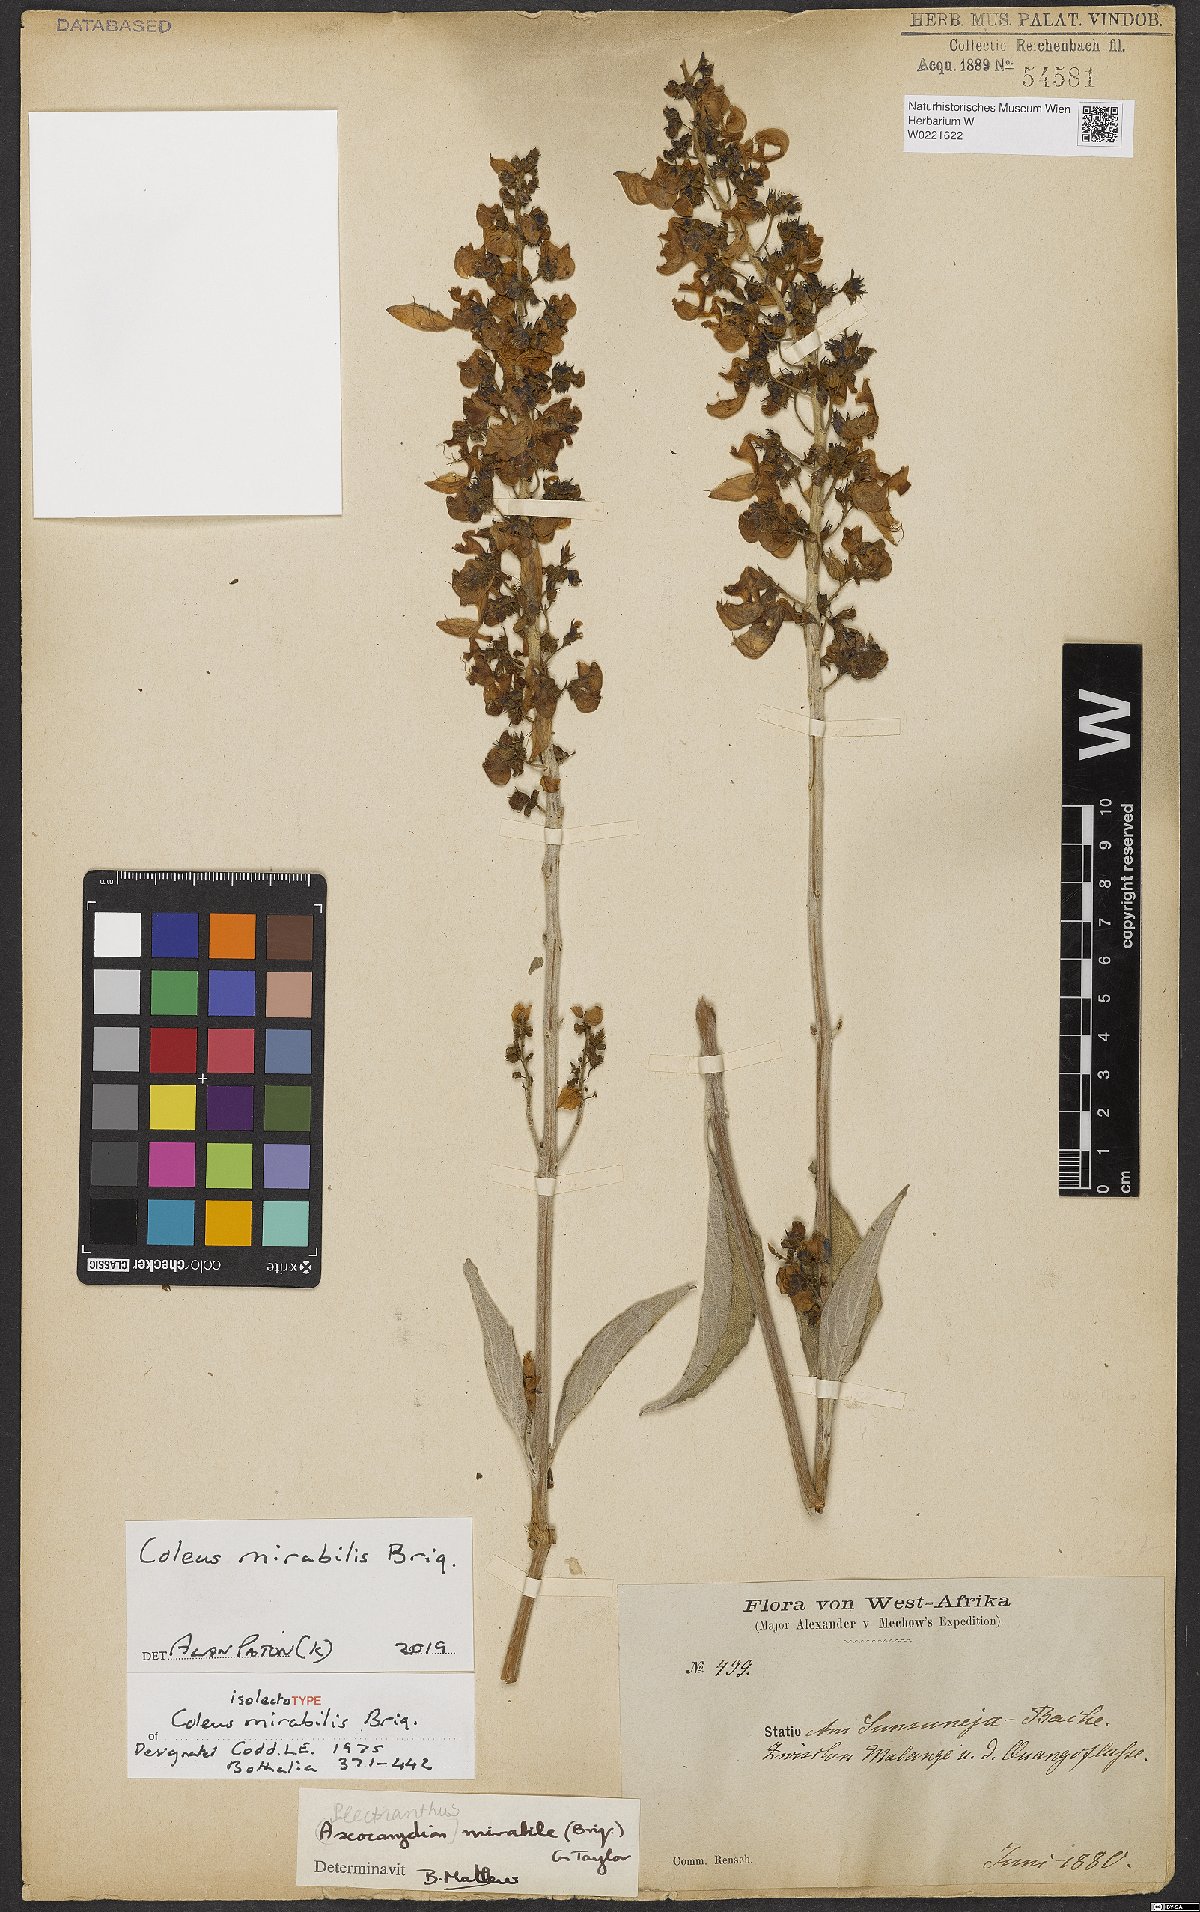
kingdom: Plantae
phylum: Tracheophyta
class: Magnoliopsida
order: Lamiales
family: Lamiaceae
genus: Coleus
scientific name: Coleus mirabilis
